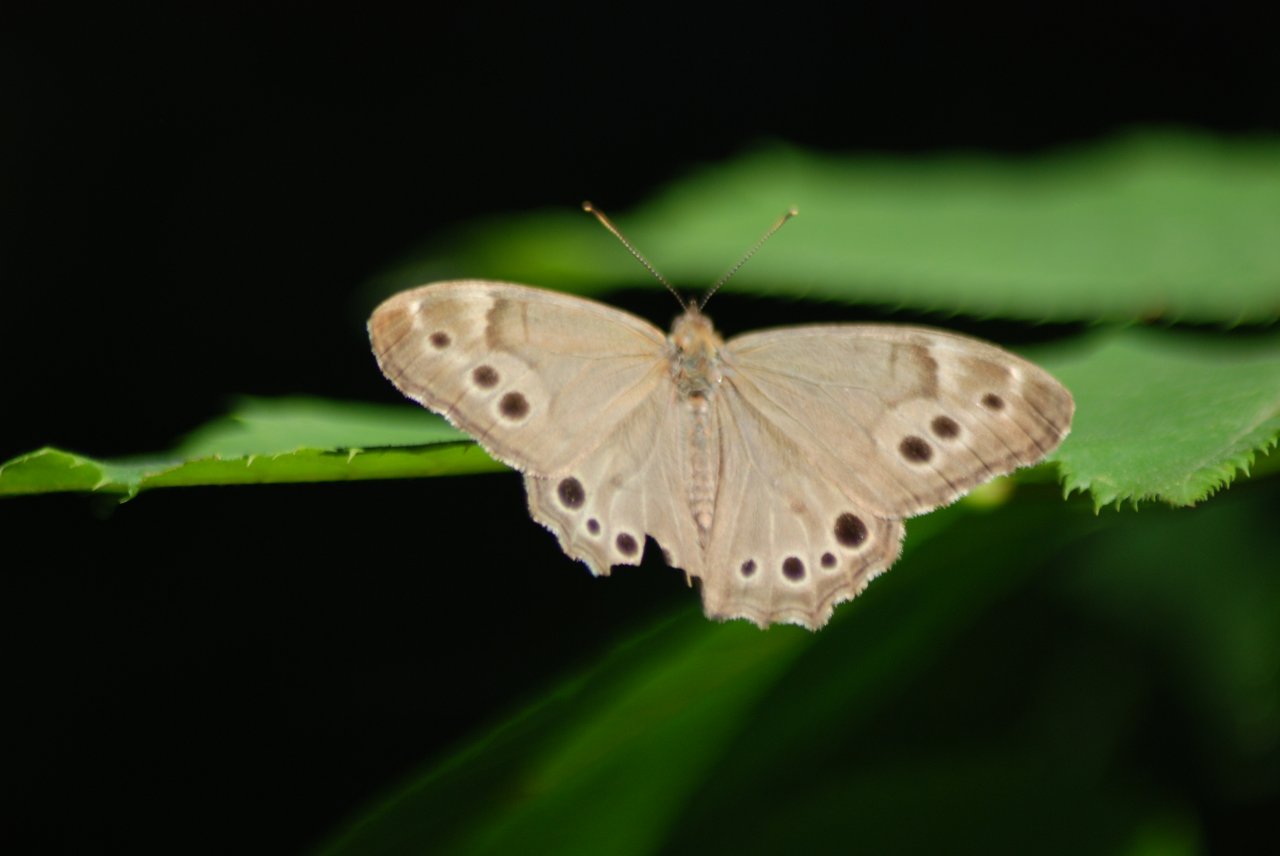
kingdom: Animalia
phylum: Arthropoda
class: Insecta
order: Lepidoptera
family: Nymphalidae
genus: Lethe
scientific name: Lethe anthedon
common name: Northern Pearly-Eye
